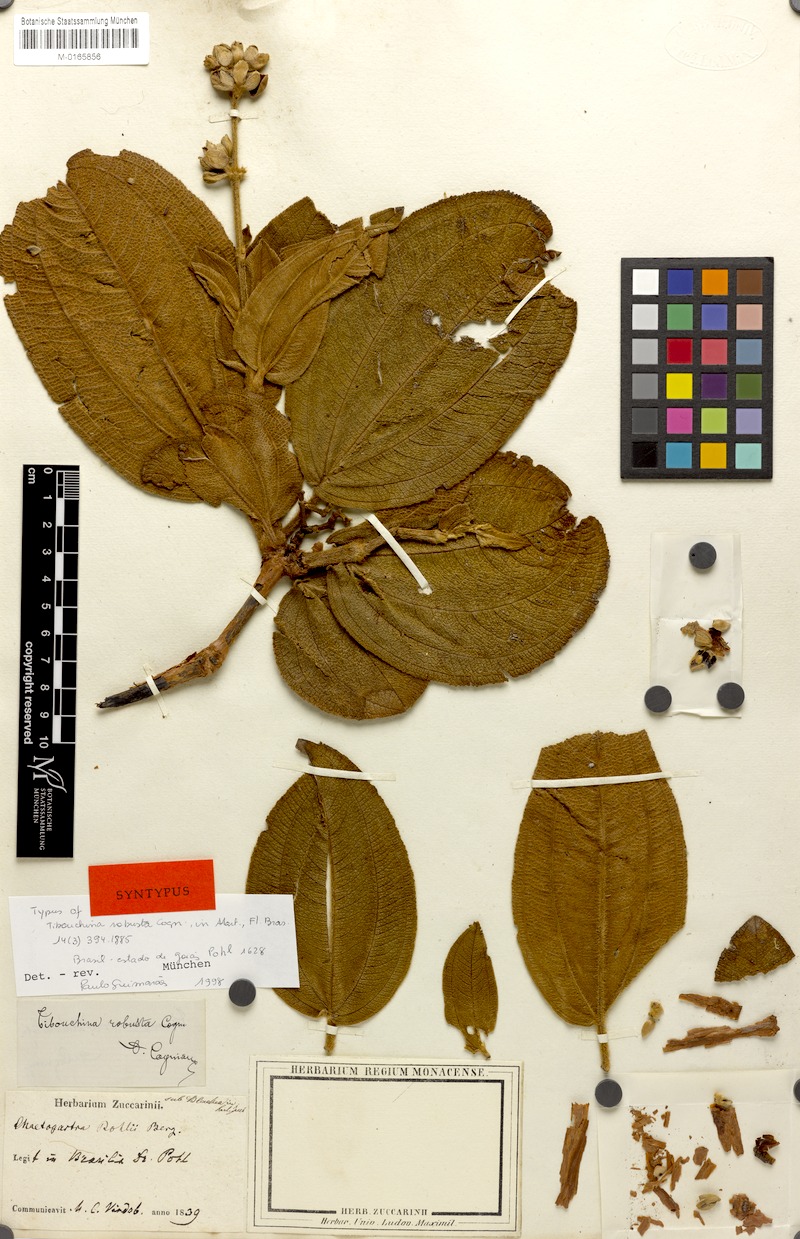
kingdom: Plantae
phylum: Tracheophyta
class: Magnoliopsida
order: Myrtales
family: Melastomataceae
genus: Pleroma
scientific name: Pleroma robustum
